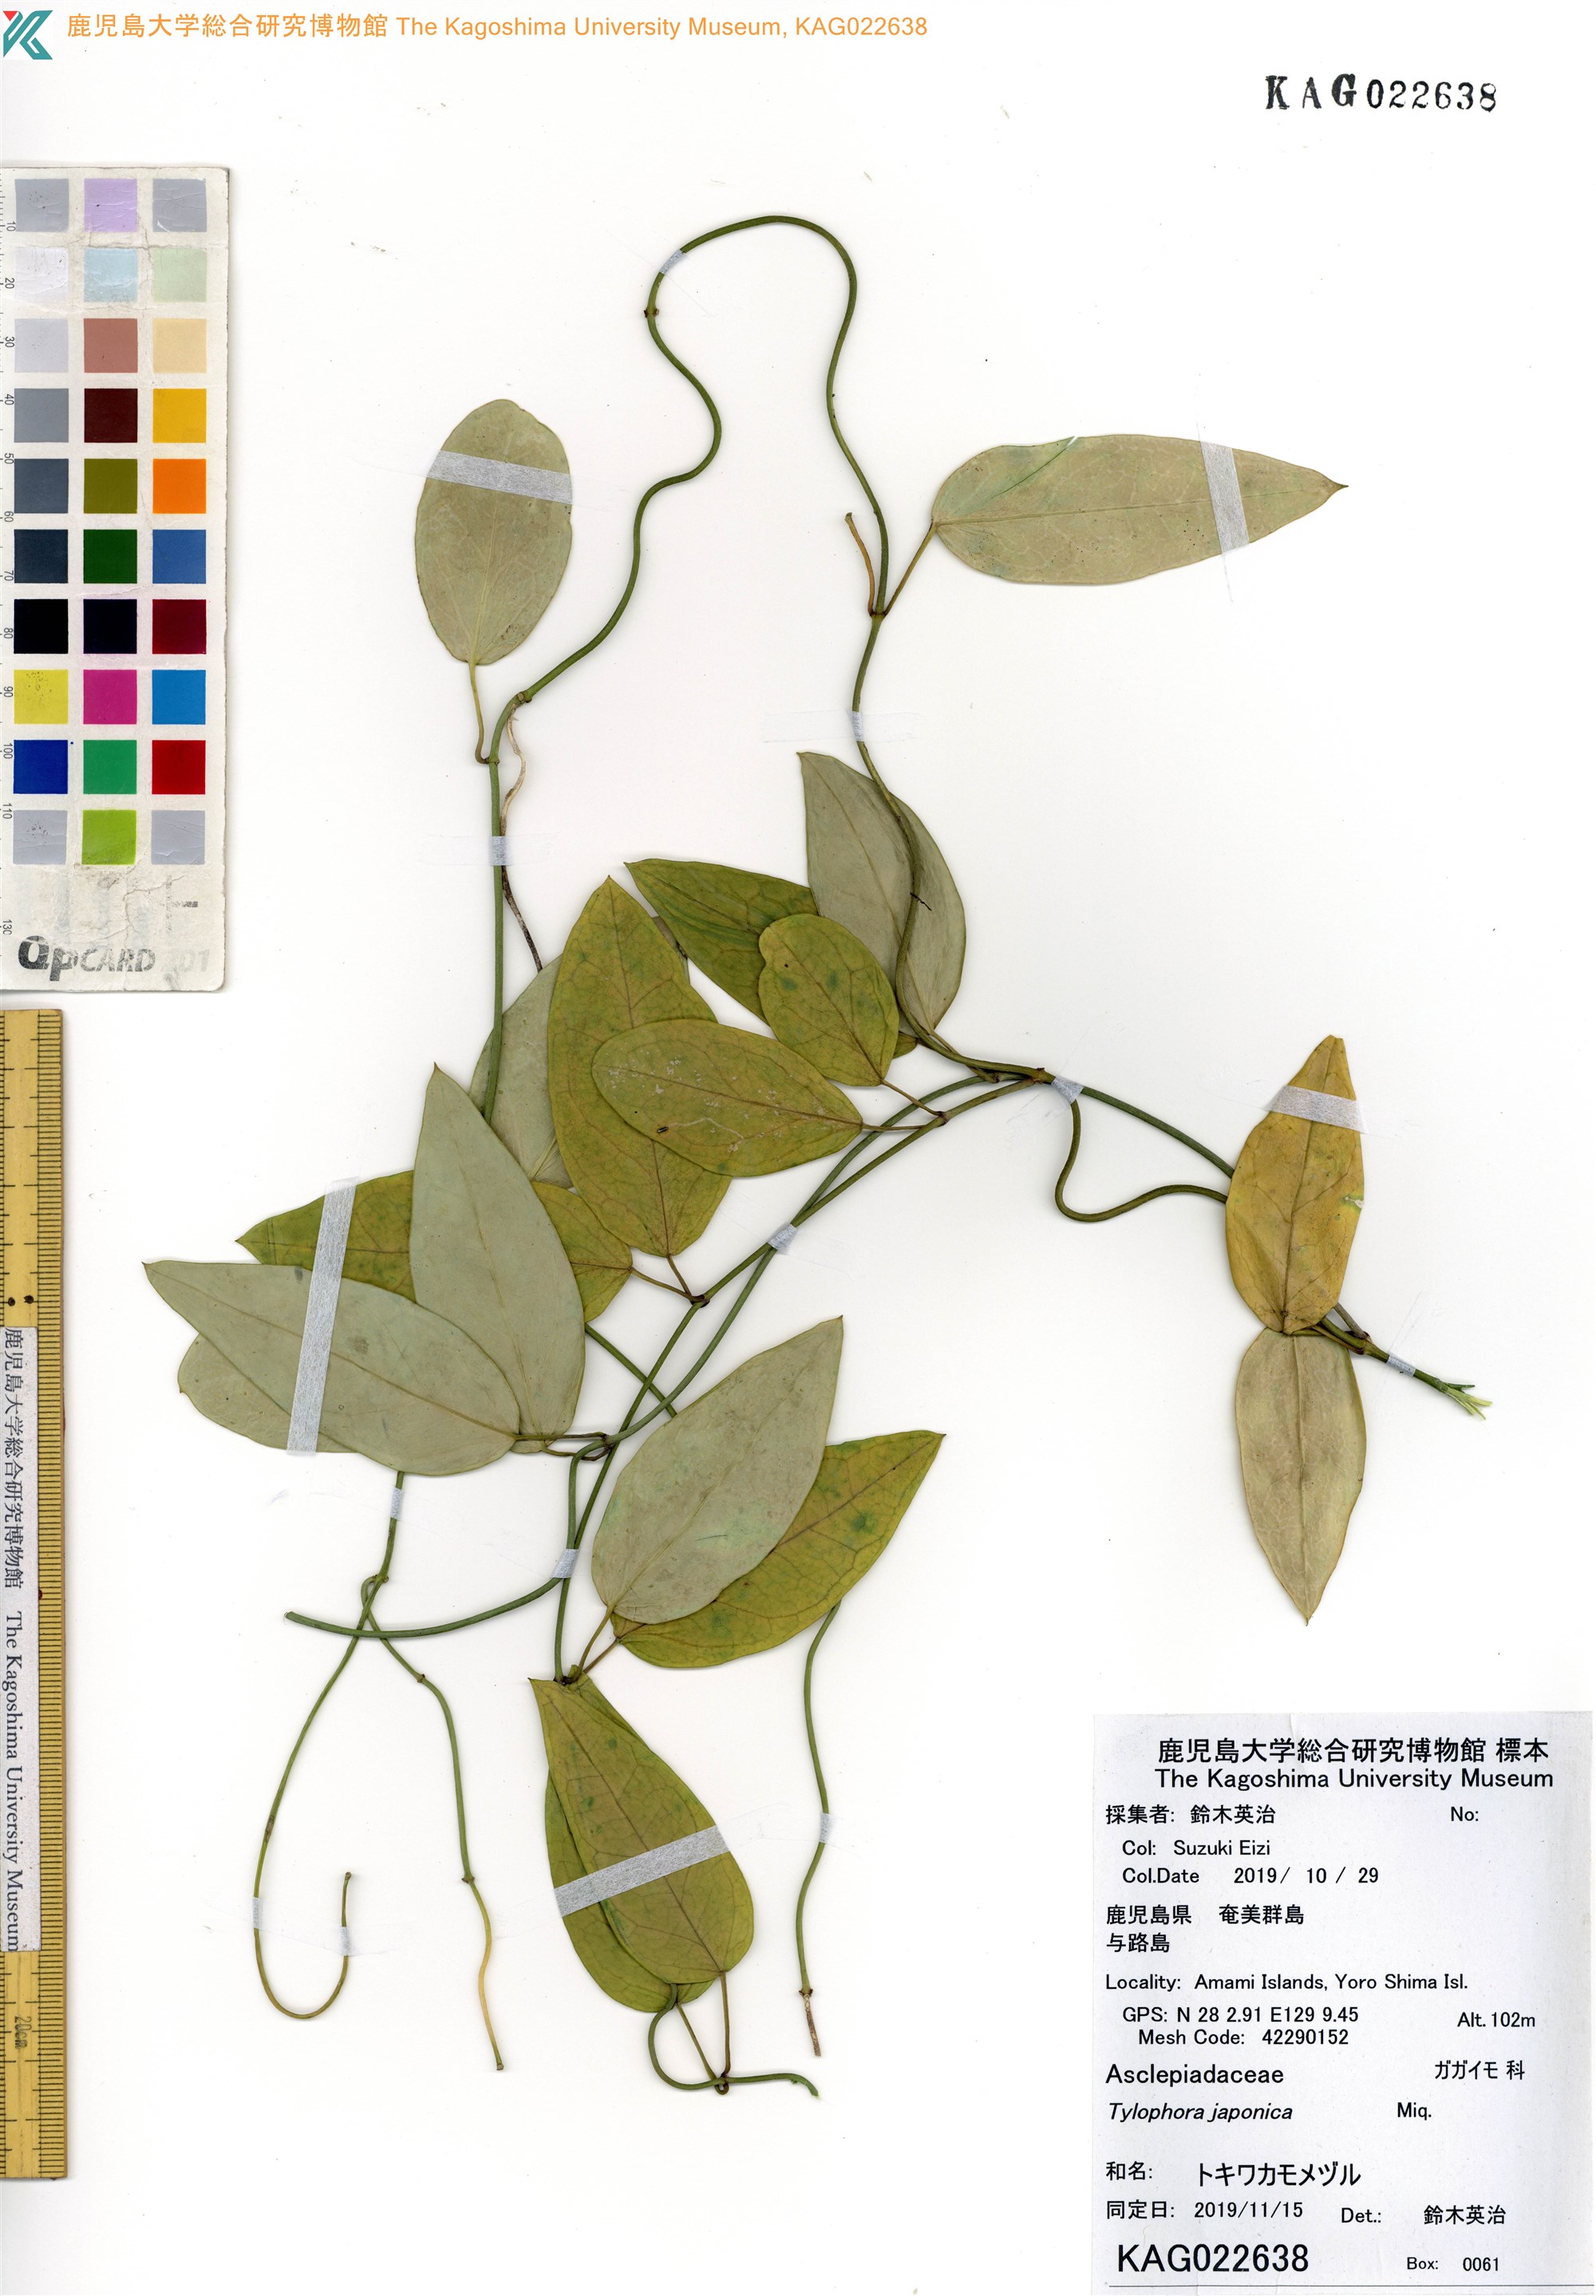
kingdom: Plantae
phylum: Tracheophyta
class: Magnoliopsida
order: Gentianales
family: Apocynaceae
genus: Vincetoxicum
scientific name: Vincetoxicum sieboldii
